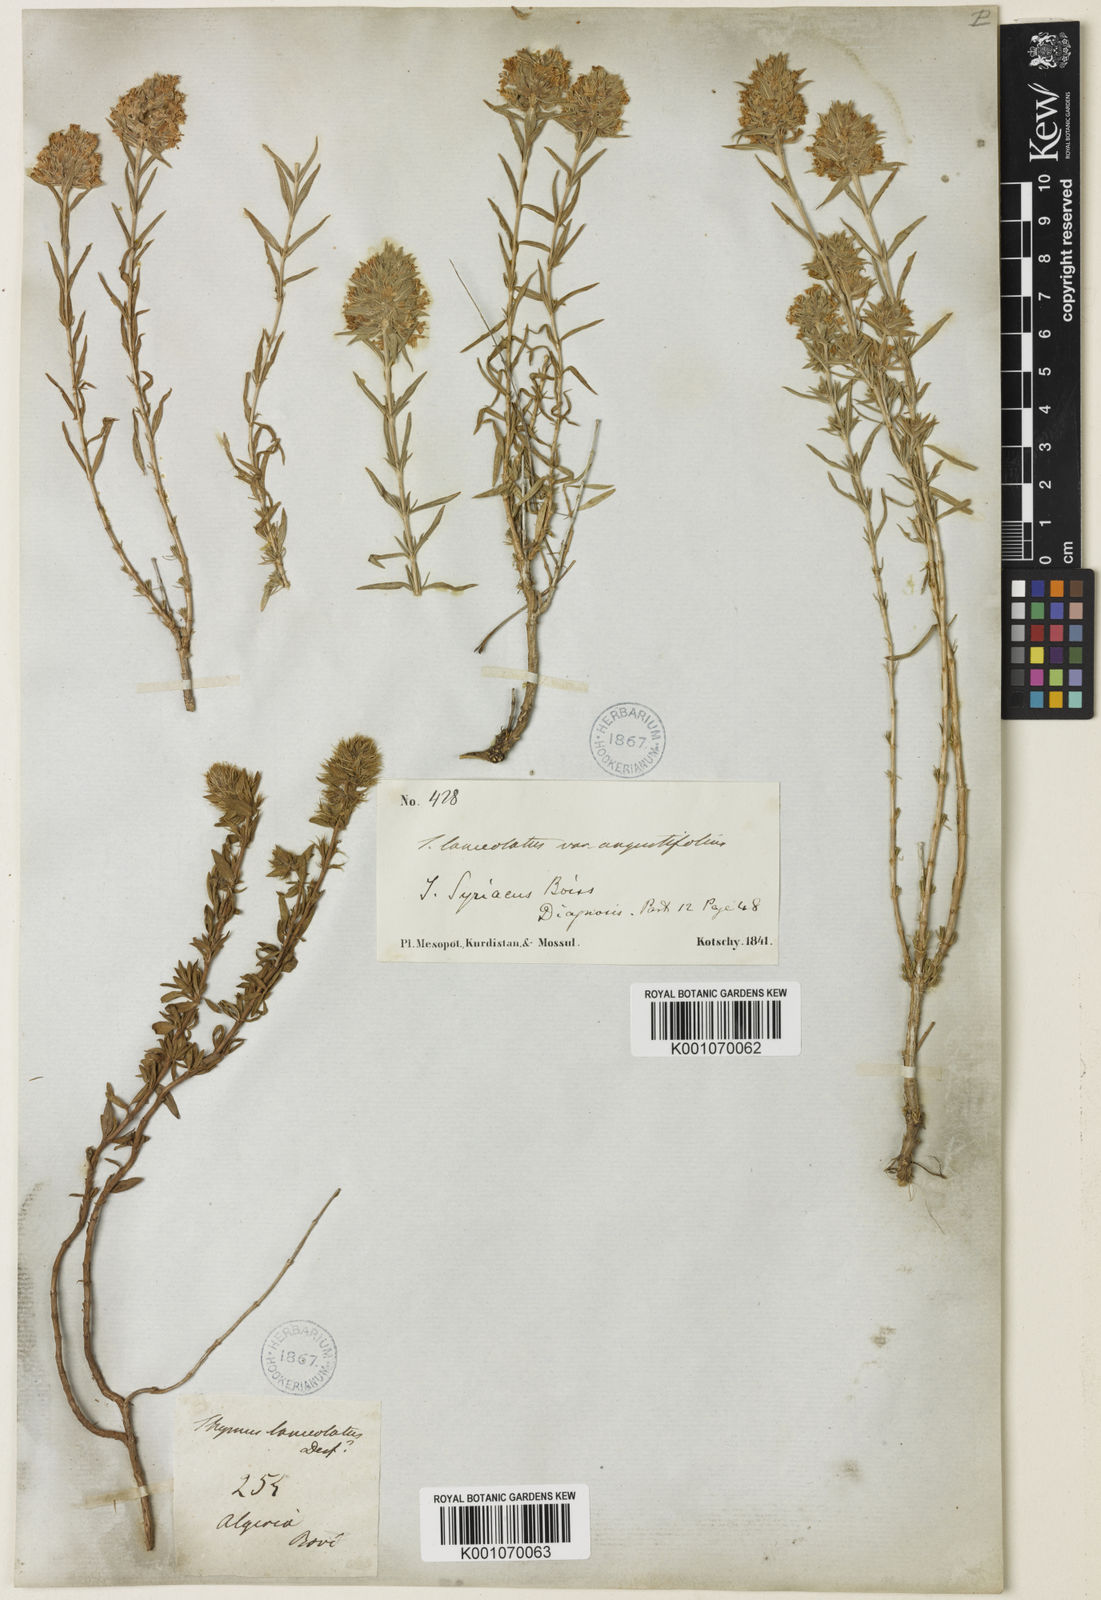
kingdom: Plantae
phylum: Tracheophyta
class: Magnoliopsida
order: Lamiales
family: Lamiaceae
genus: Thymus
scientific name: Thymus syriacus
